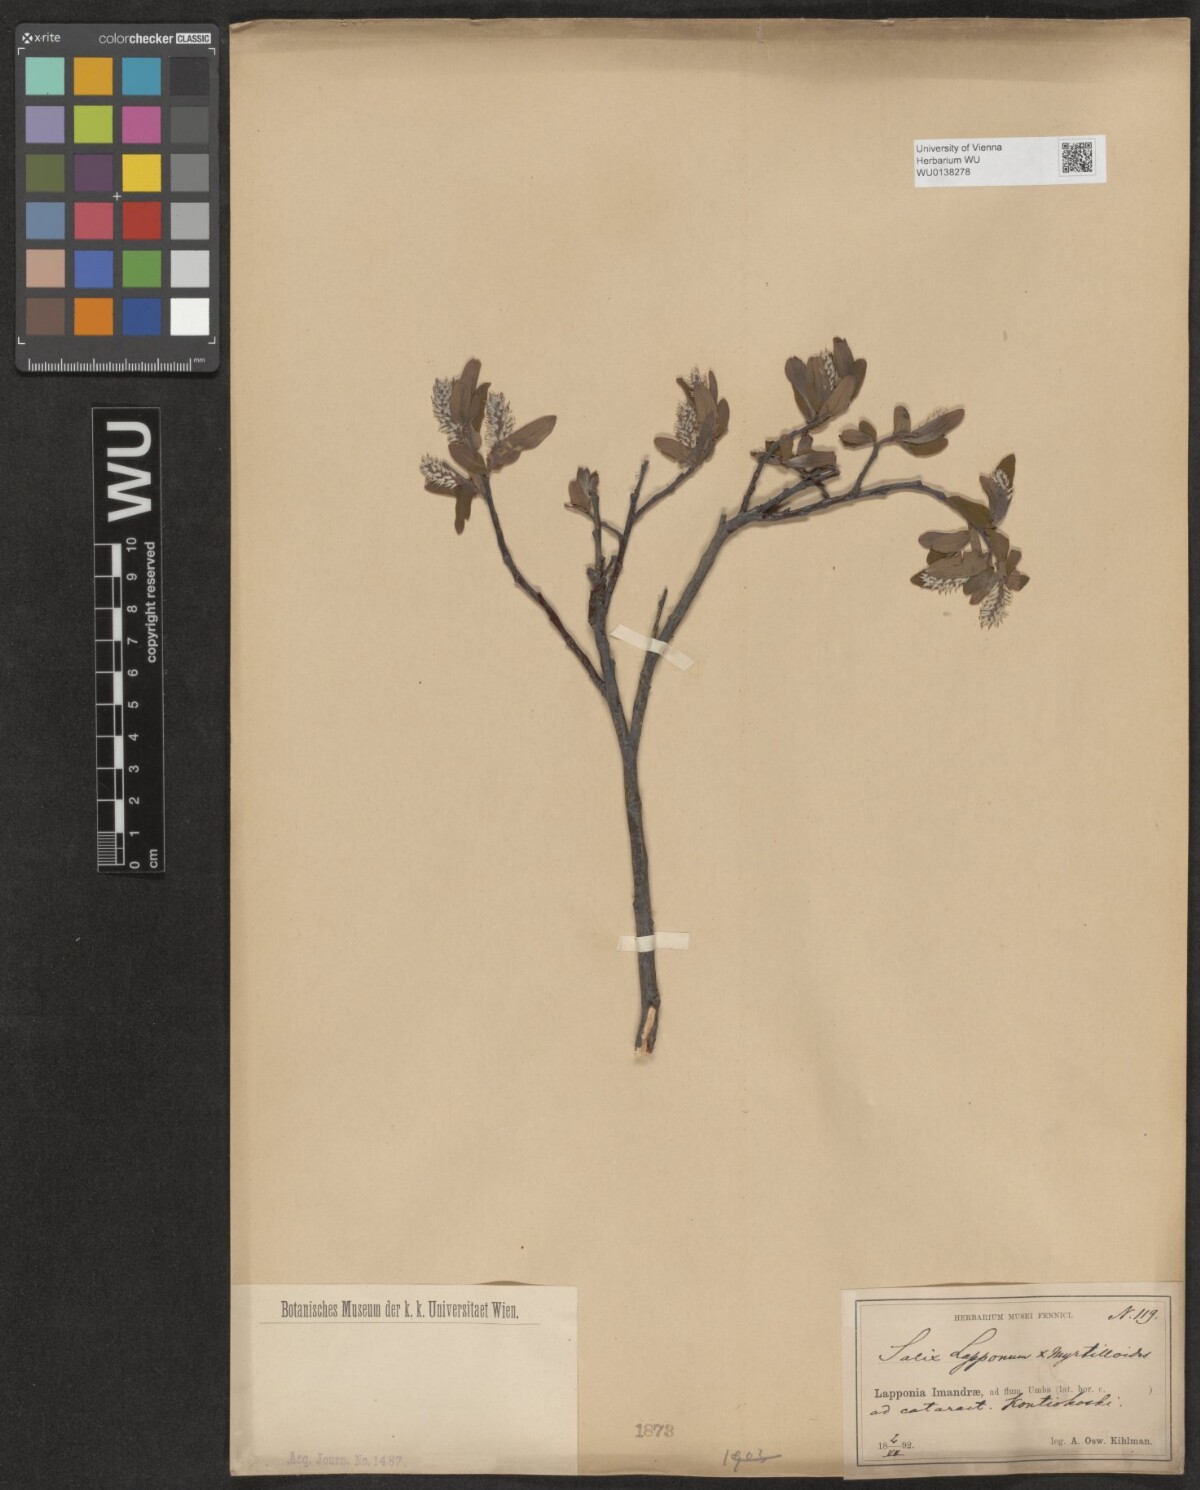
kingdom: Plantae
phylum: Tracheophyta
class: Magnoliopsida
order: Malpighiales
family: Salicaceae
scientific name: Salicaceae
